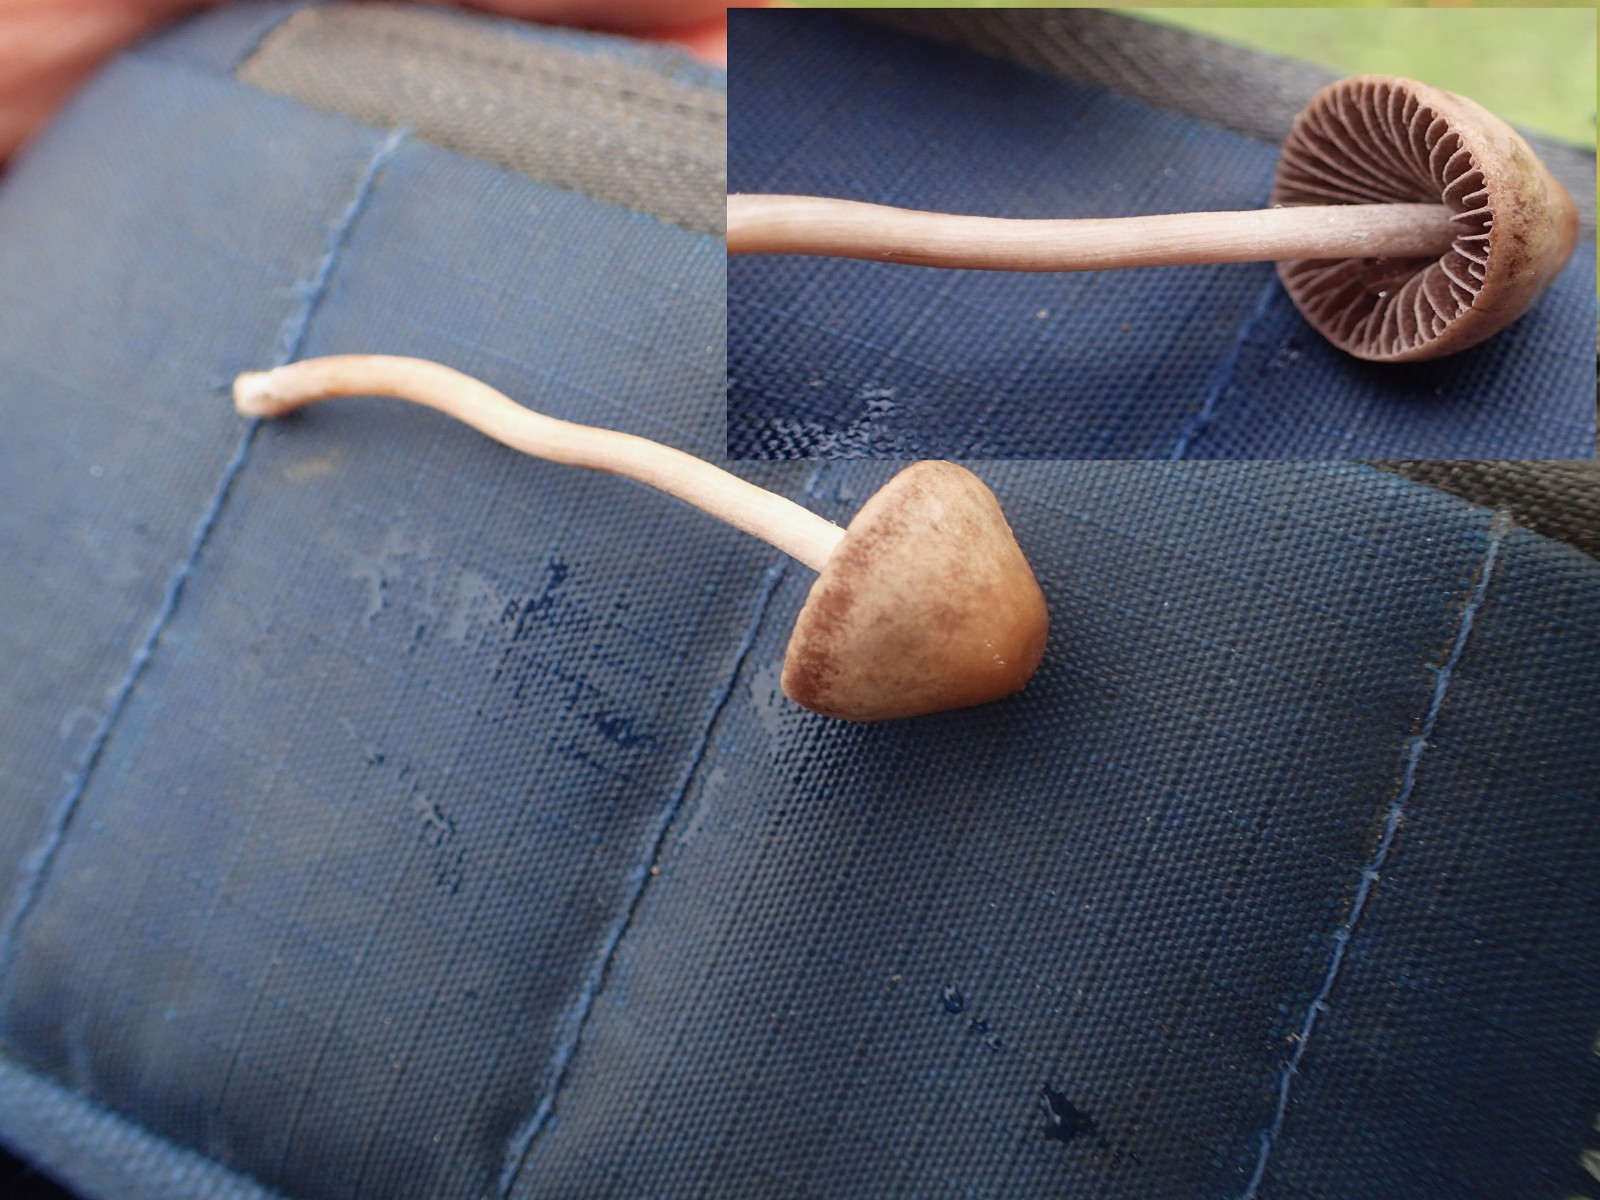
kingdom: Fungi
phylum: Basidiomycota
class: Agaricomycetes
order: Agaricales
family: Bolbitiaceae
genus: Panaeolina
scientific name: Panaeolina foenisecii
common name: høslætsvamp
